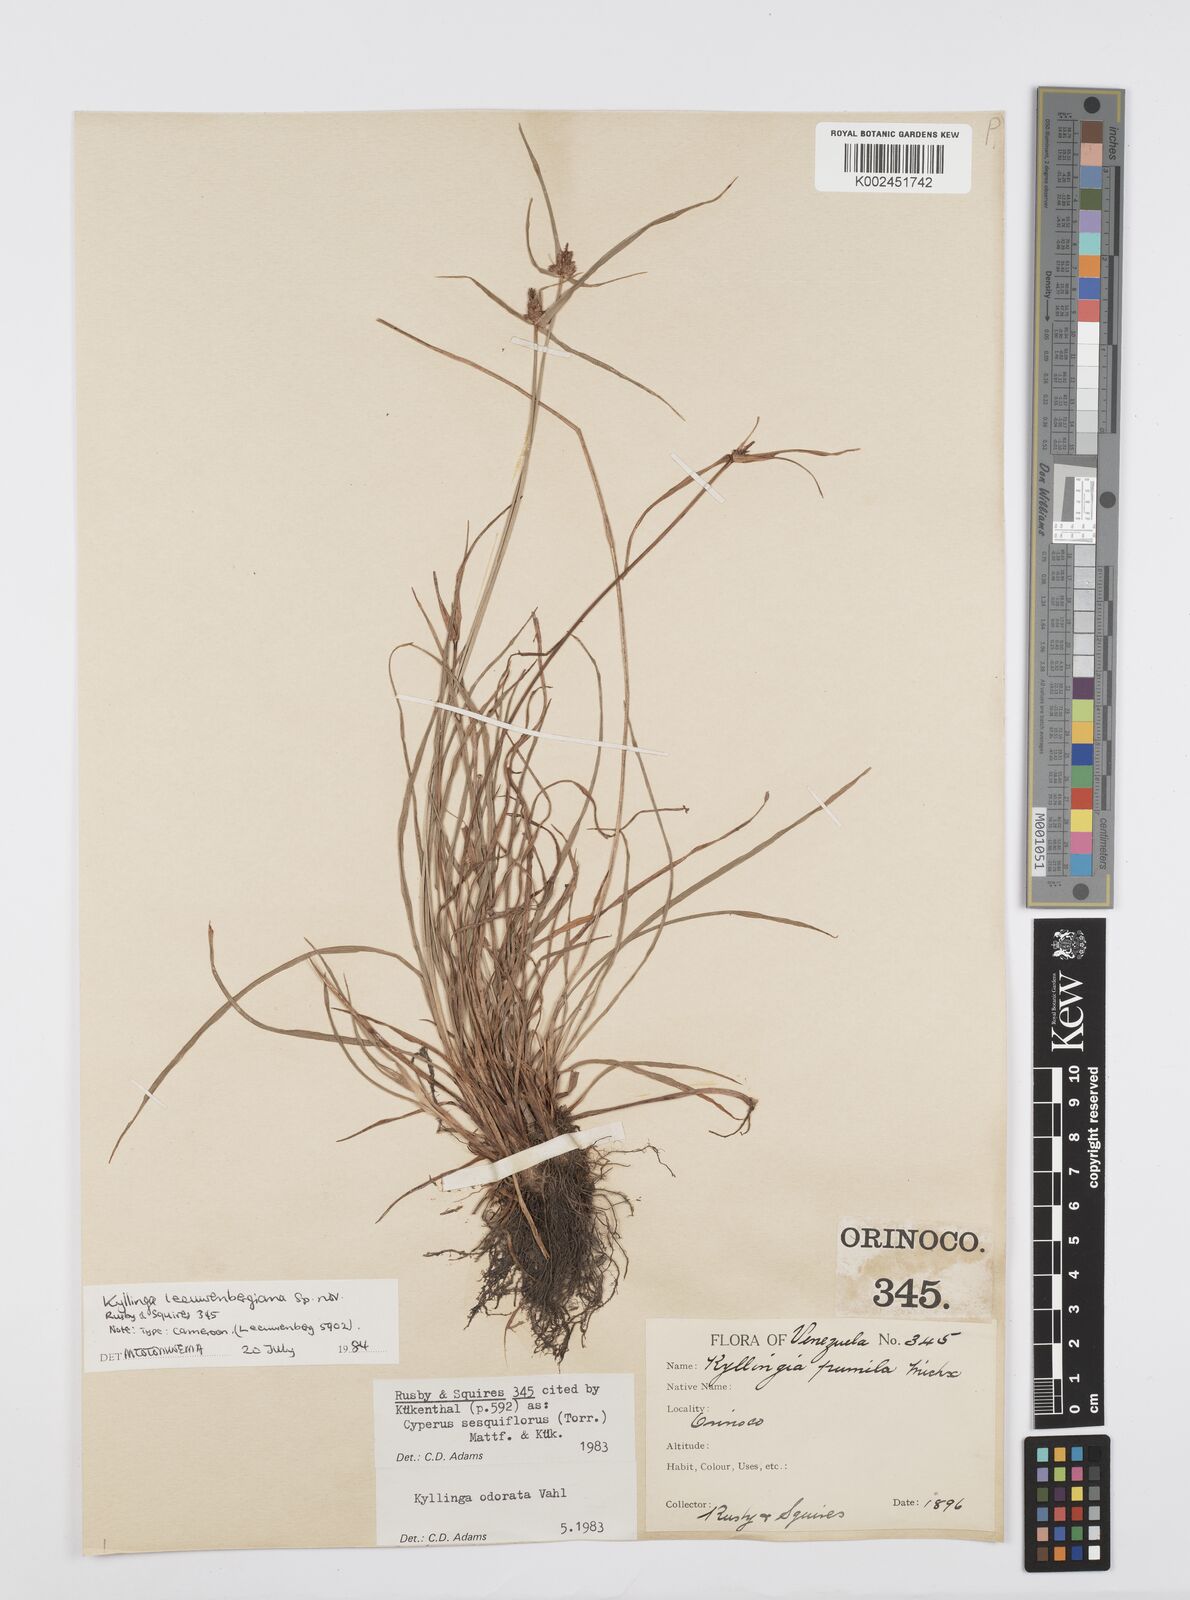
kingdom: Plantae
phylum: Tracheophyta
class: Liliopsida
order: Poales
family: Cyperaceae
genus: Cyperus
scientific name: Cyperus
